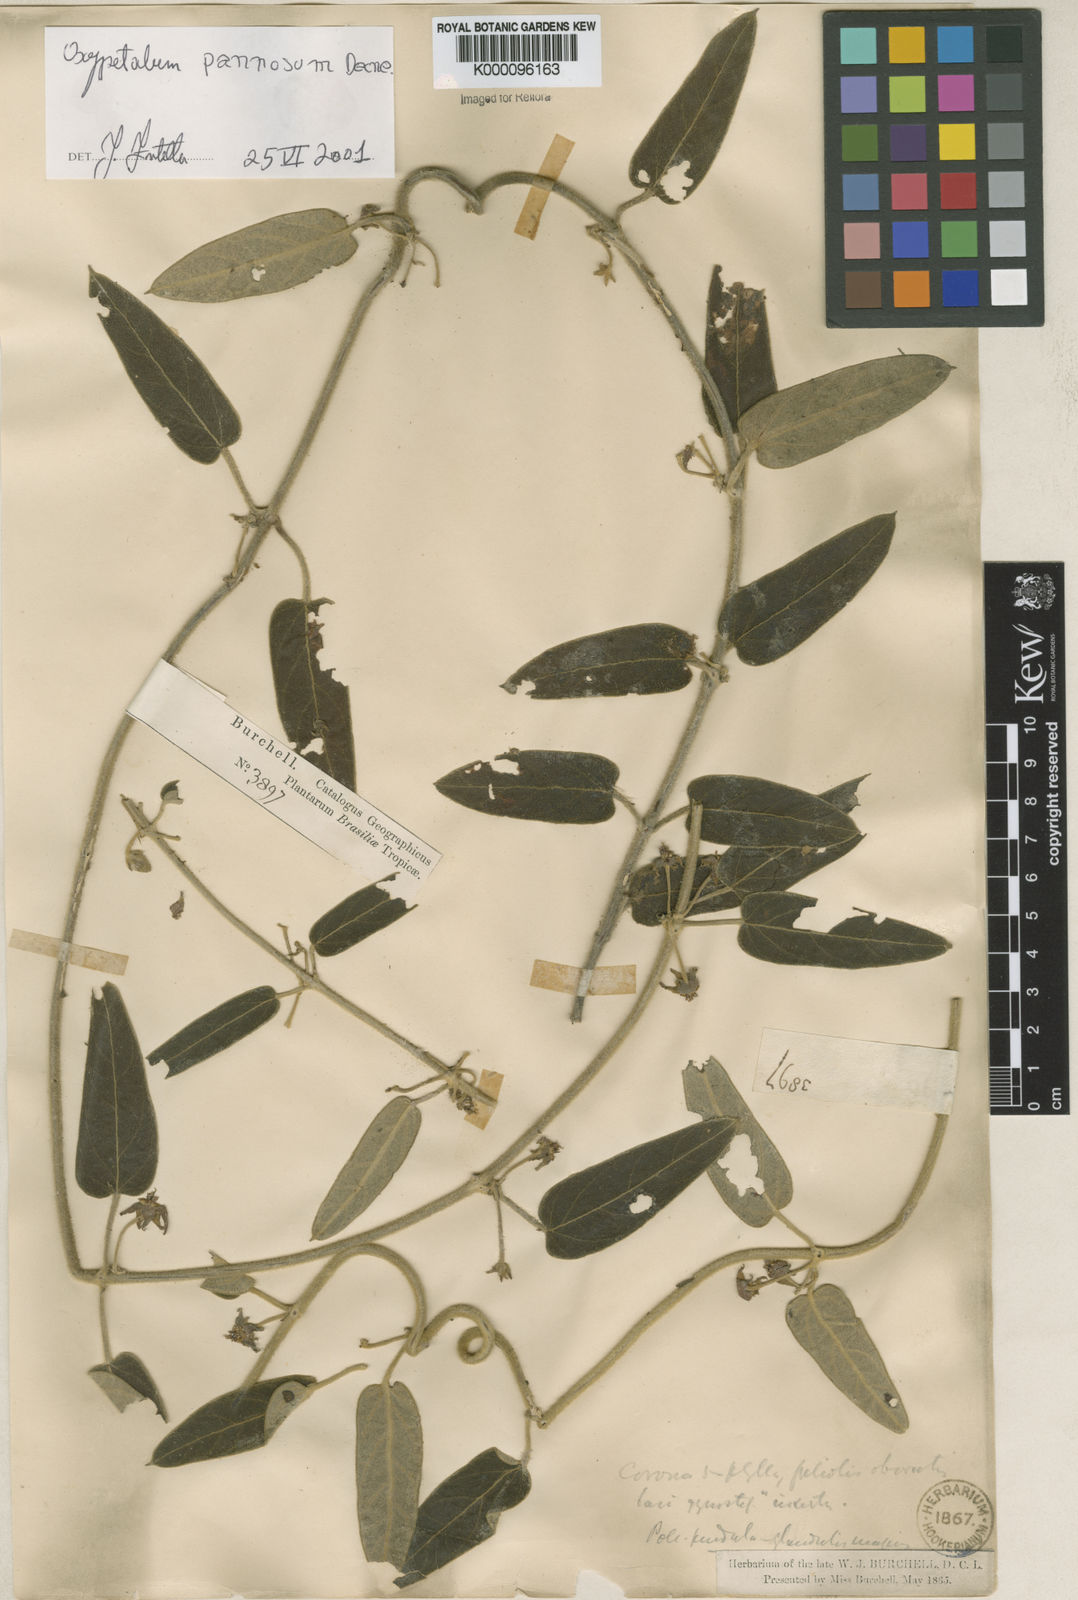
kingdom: Plantae
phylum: Tracheophyta
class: Magnoliopsida
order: Gentianales
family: Apocynaceae
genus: Oxypetalum
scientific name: Oxypetalum pannosum
